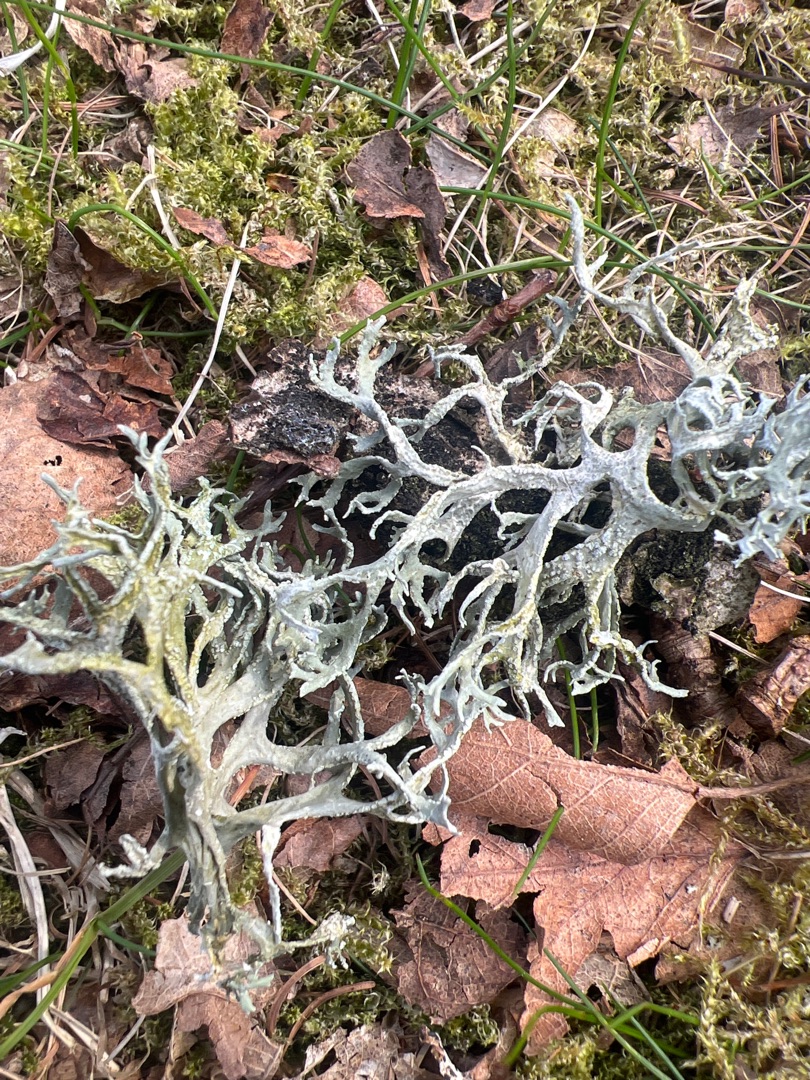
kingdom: Fungi
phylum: Ascomycota
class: Lecanoromycetes
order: Lecanorales
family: Parmeliaceae
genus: Evernia
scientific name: Evernia prunastri
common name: Almindelig slåenlav
